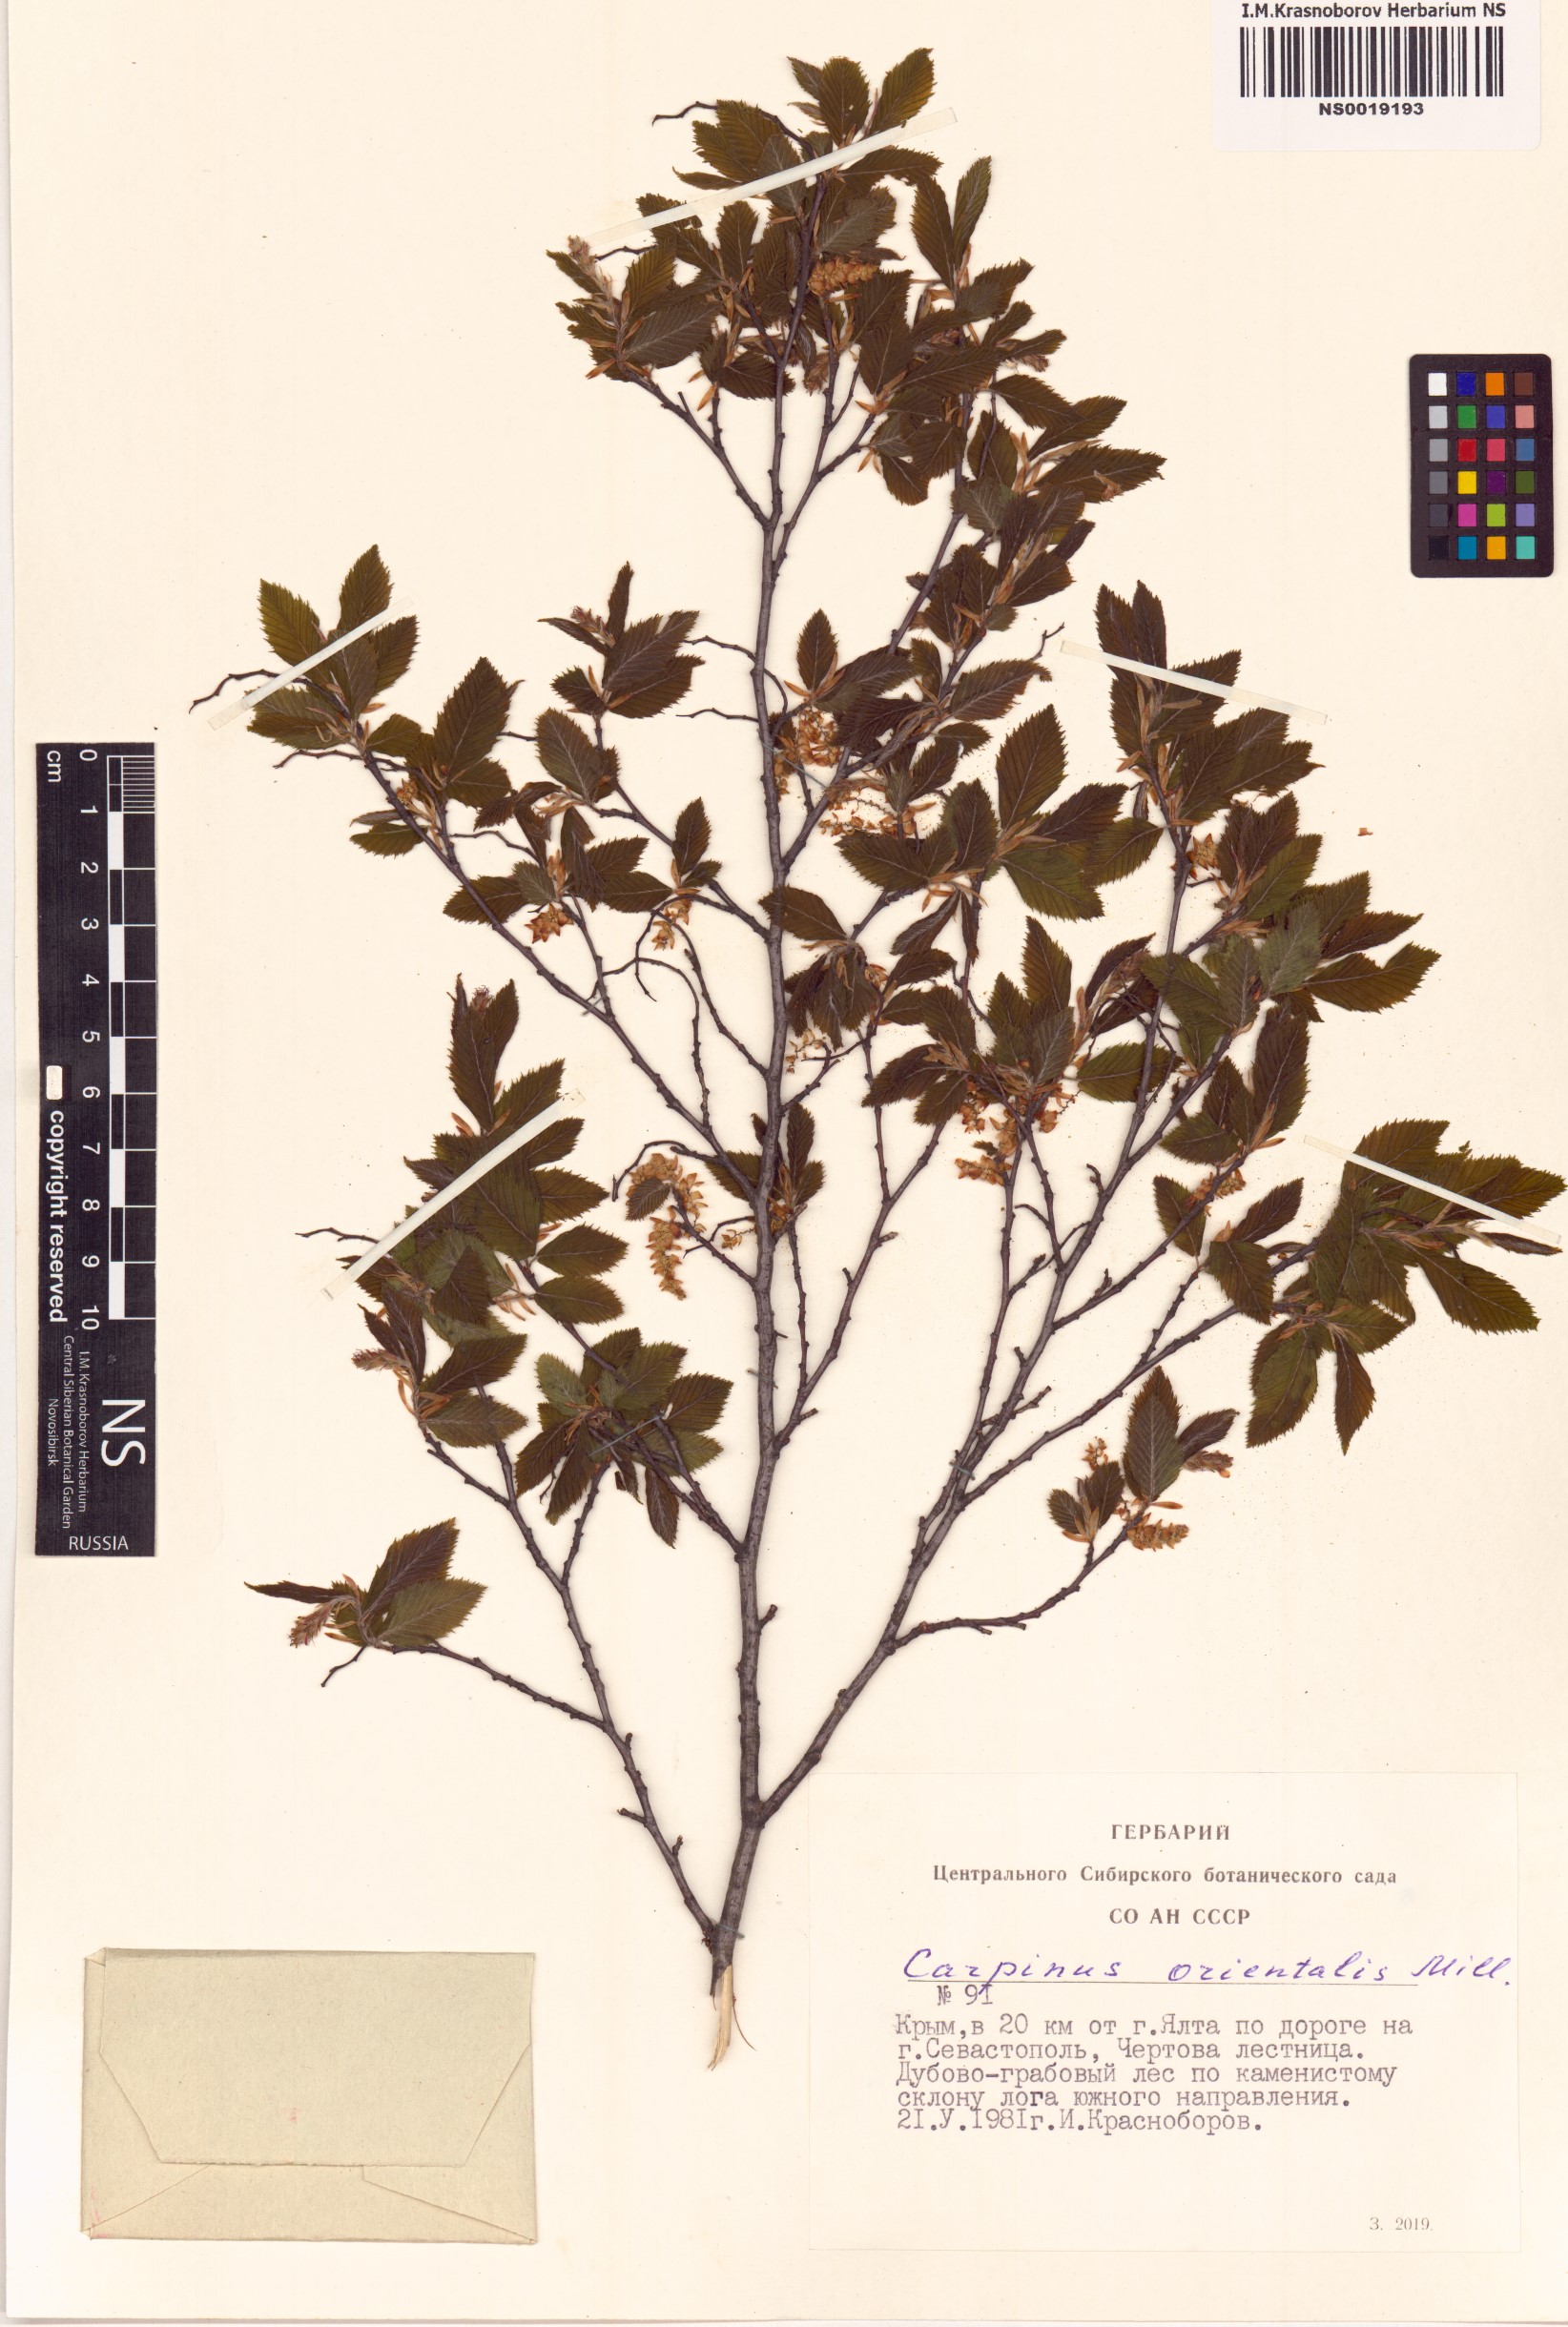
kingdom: Plantae
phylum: Tracheophyta
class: Magnoliopsida
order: Fagales
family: Betulaceae
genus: Carpinus
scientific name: Carpinus orientalis
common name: Eastern hornbeam
